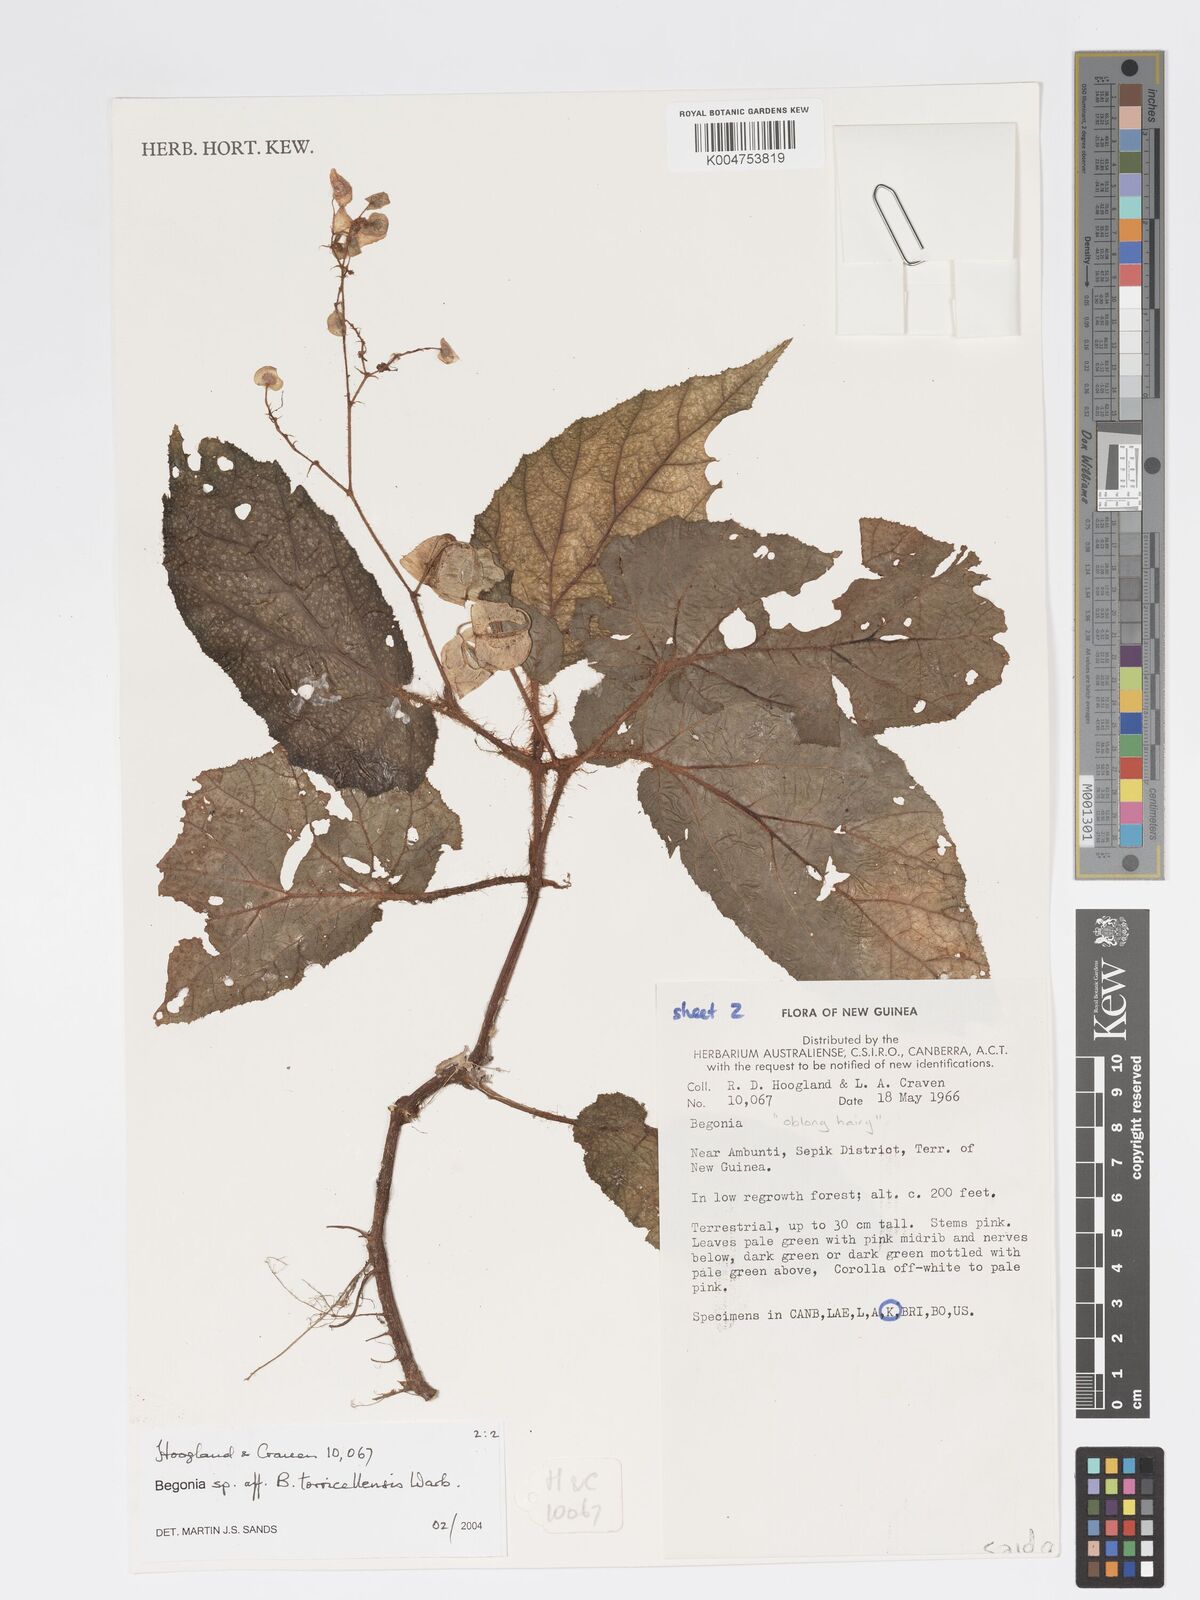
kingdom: Plantae
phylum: Tracheophyta
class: Magnoliopsida
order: Cucurbitales
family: Begoniaceae
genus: Begonia
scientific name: Begonia torricellensis
